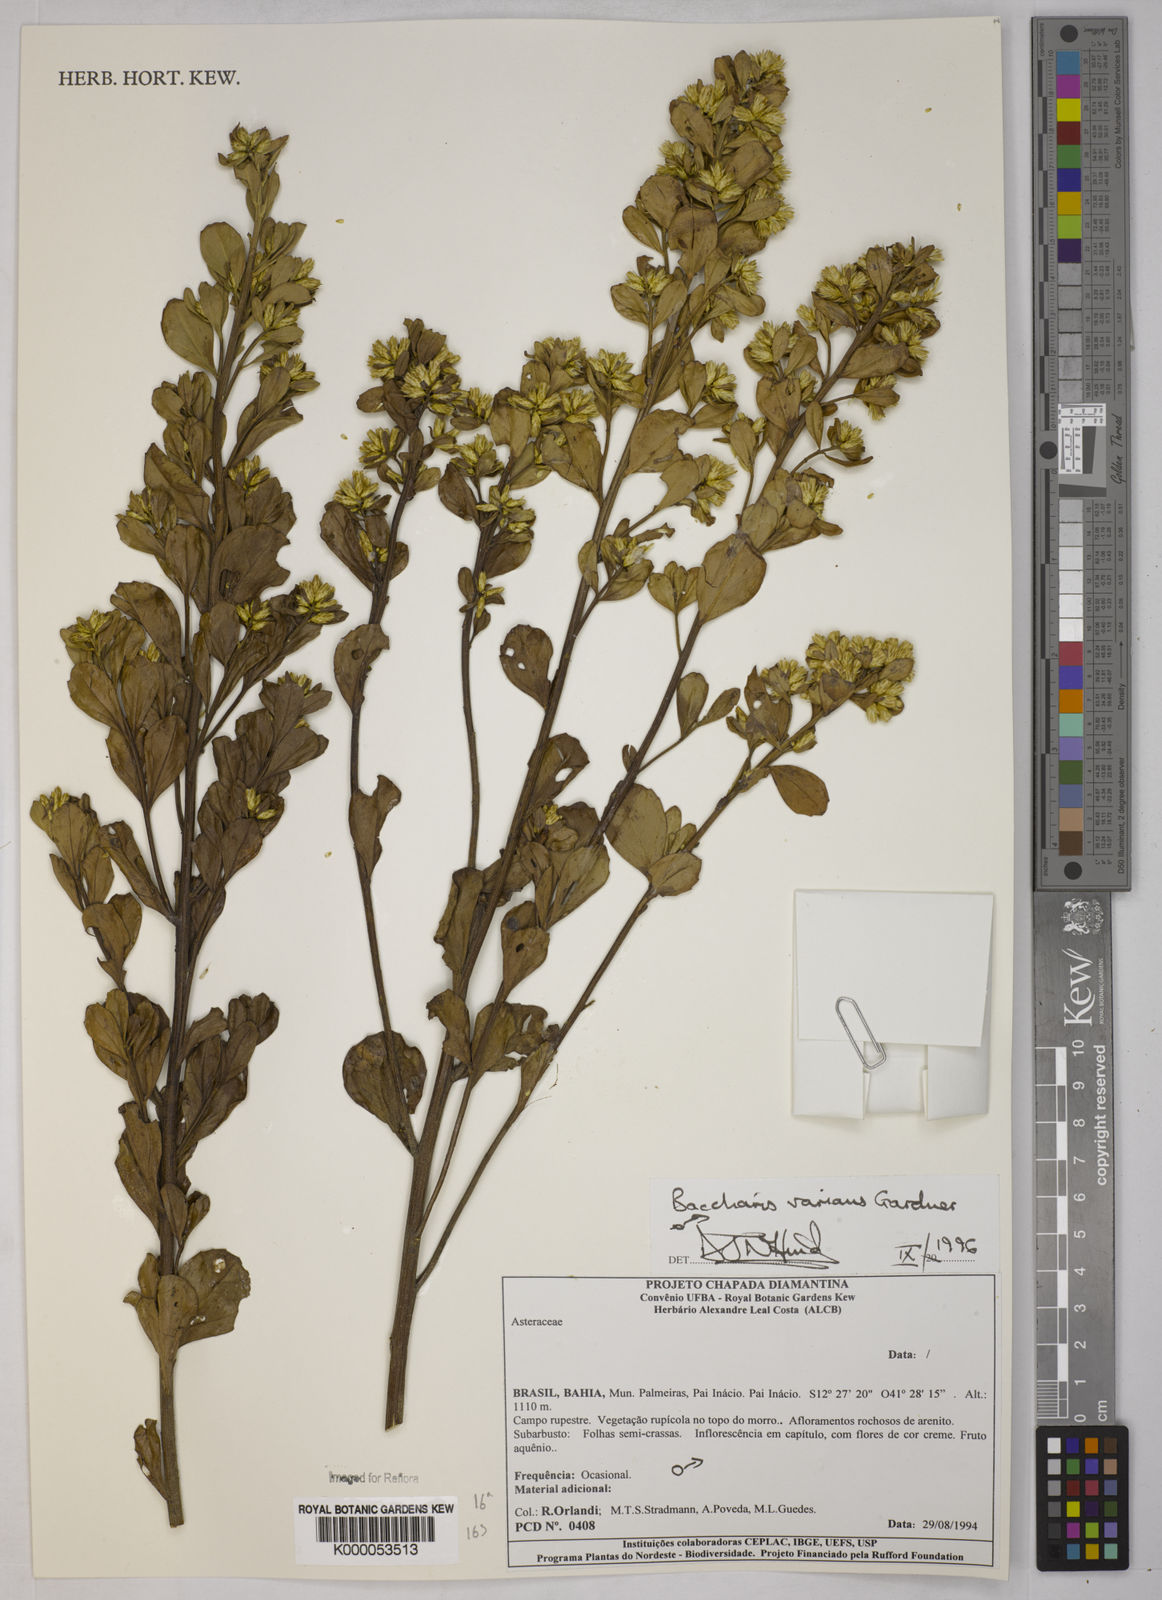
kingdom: Plantae
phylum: Tracheophyta
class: Magnoliopsida
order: Asterales
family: Asteraceae
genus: Baccharis
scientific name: Baccharis varians
